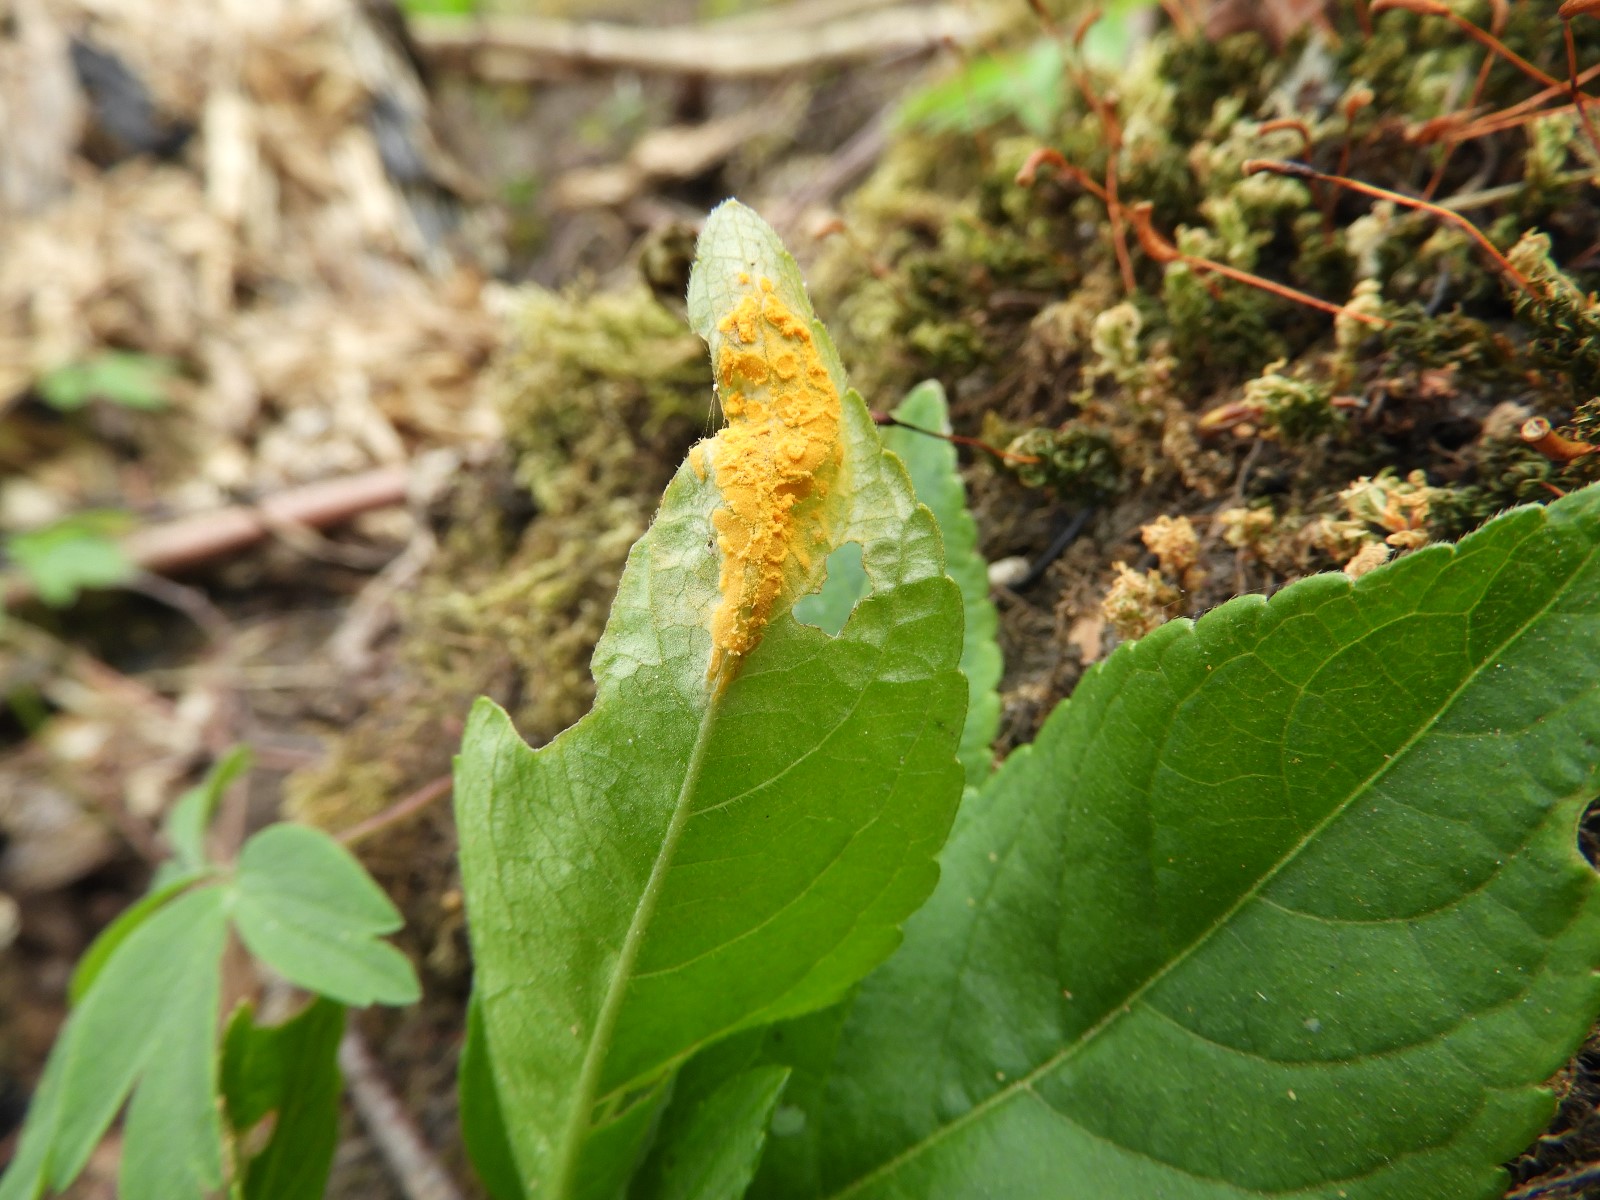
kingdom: Fungi
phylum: Basidiomycota
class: Pucciniomycetes
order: Pucciniales
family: Melampsoraceae
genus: Melampsora
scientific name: Melampsora populnea
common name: poppel-skorperust
